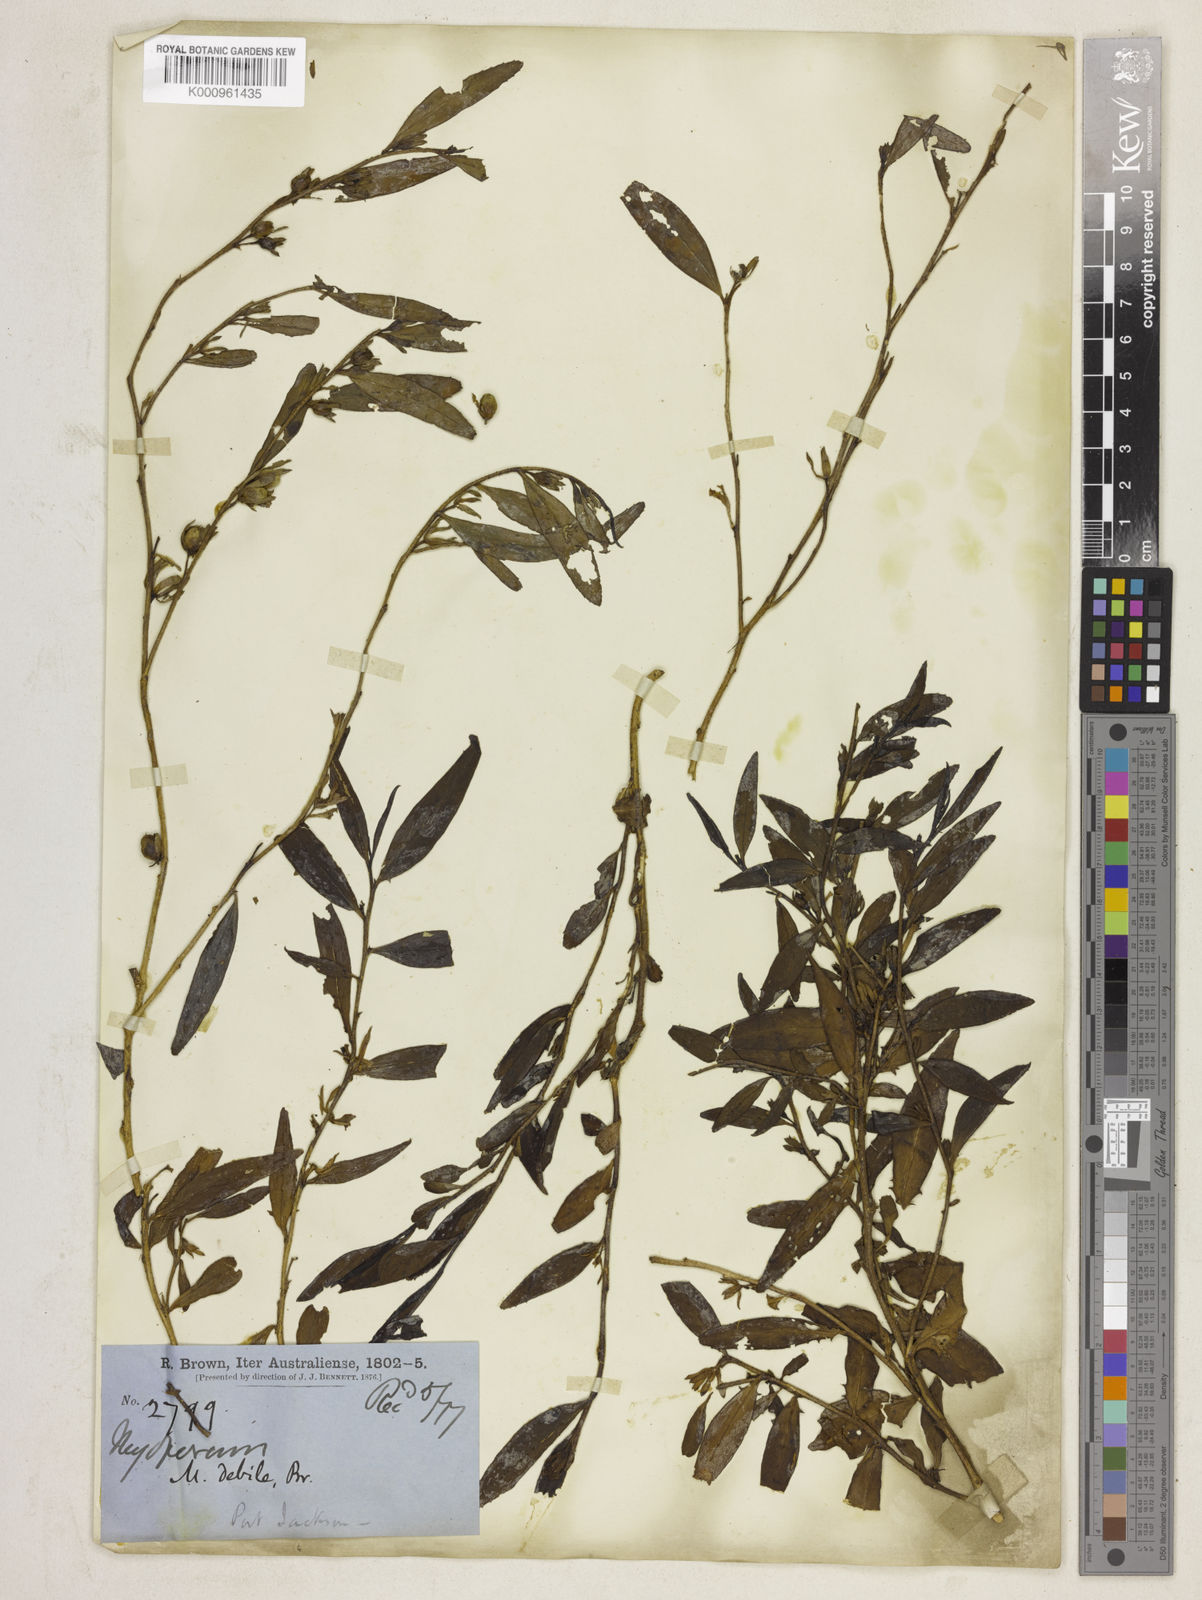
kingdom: Plantae
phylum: Tracheophyta
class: Magnoliopsida
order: Lamiales
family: Scrophulariaceae
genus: Eremophila
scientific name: Eremophila debilis
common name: Winter-apple
